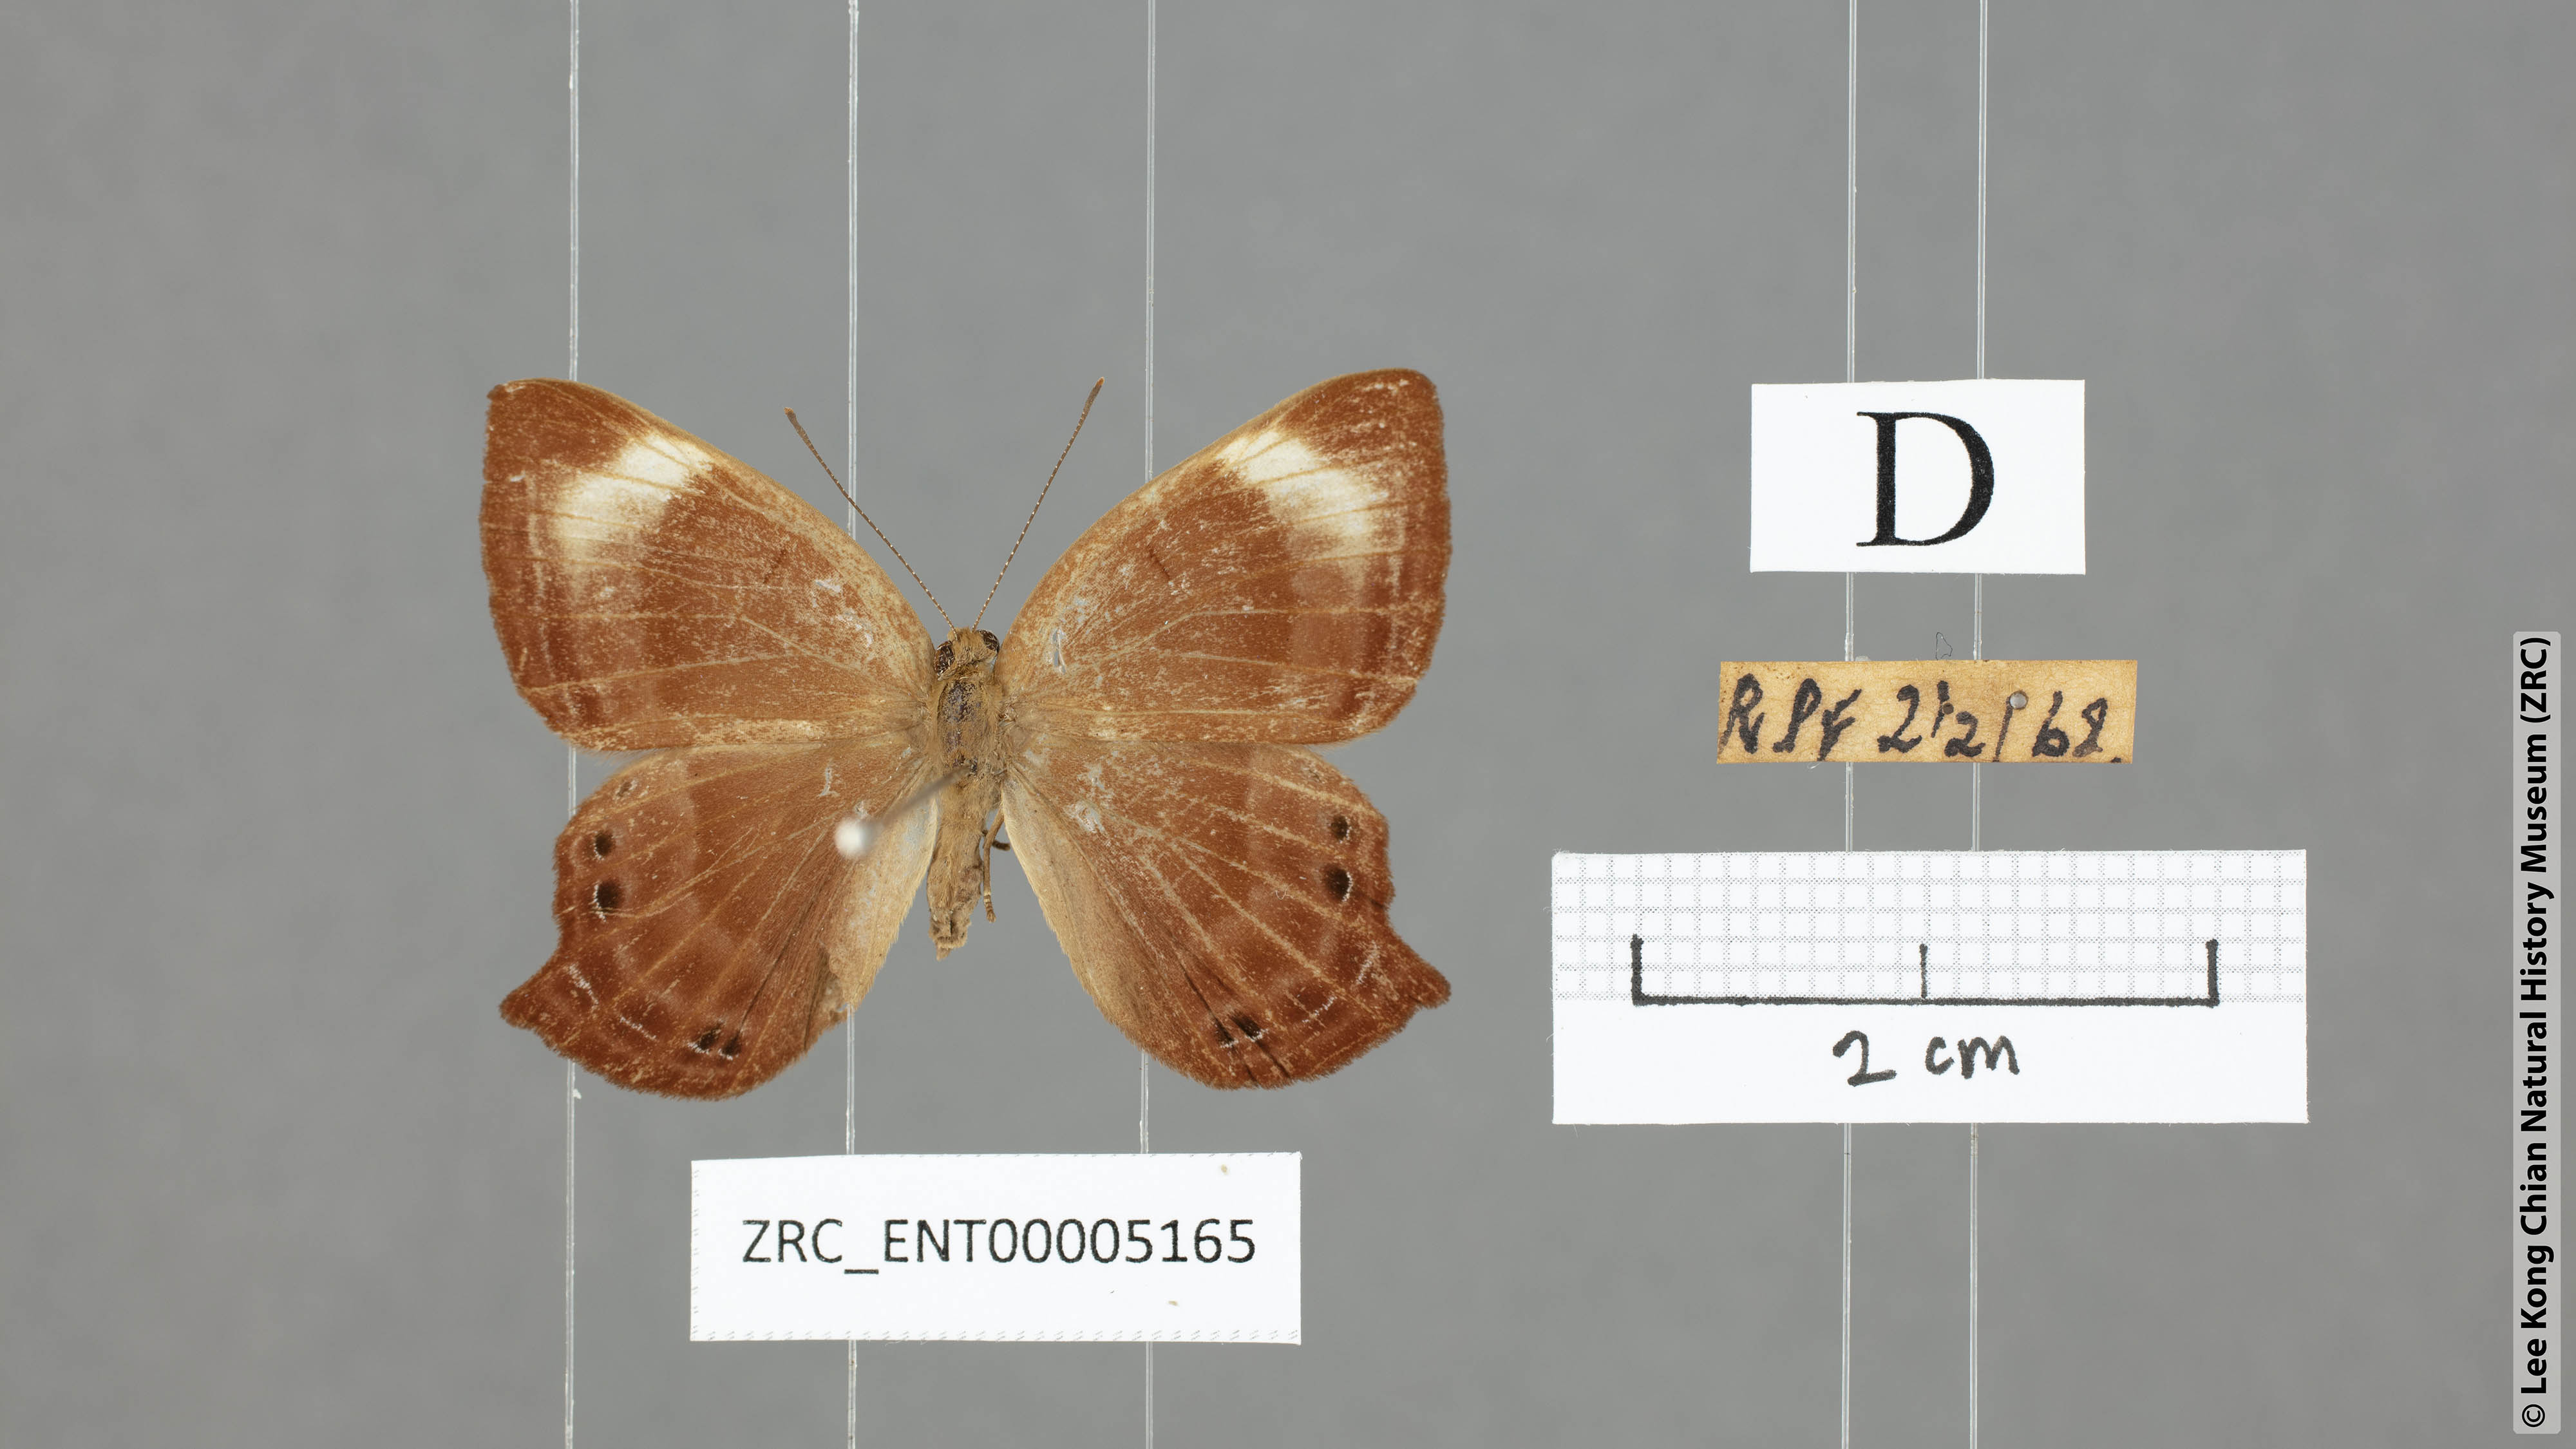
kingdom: Animalia
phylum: Arthropoda
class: Insecta
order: Lepidoptera
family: Lycaenidae
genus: Abisara
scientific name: Abisara kausambi
